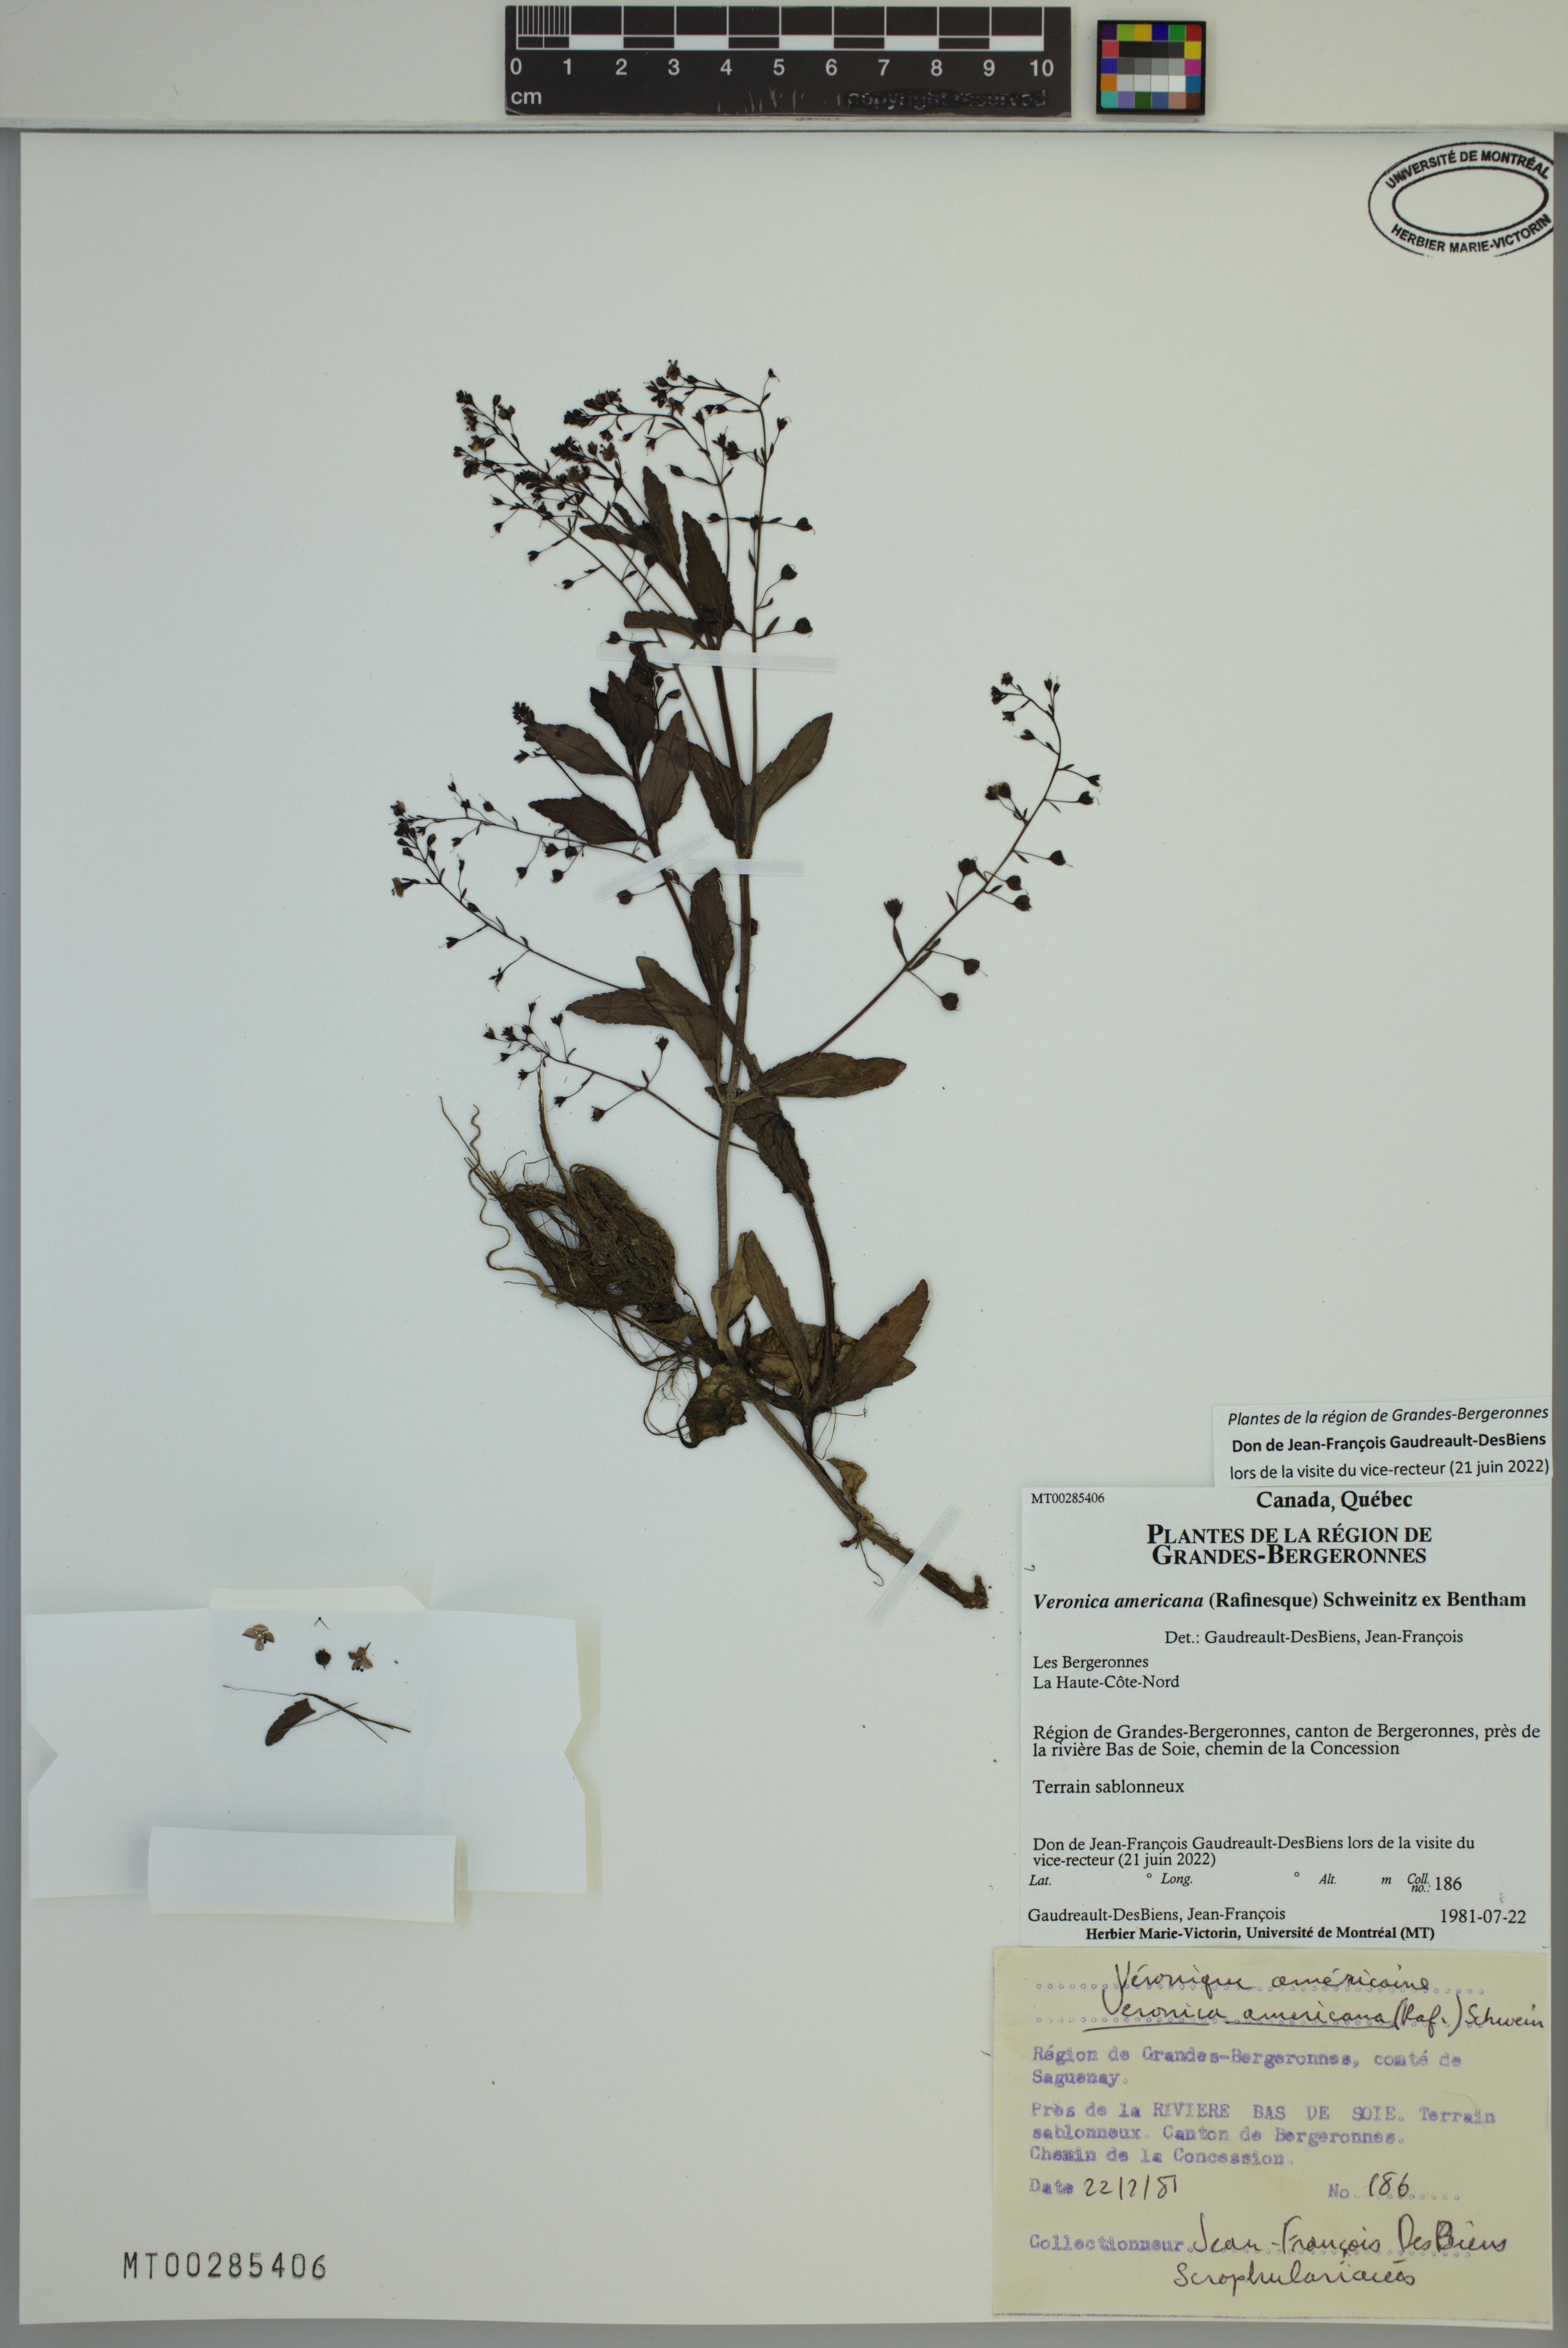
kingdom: Plantae
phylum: Tracheophyta
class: Magnoliopsida
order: Lamiales
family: Plantaginaceae
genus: Veronica
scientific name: Veronica americana
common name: American brooklime
